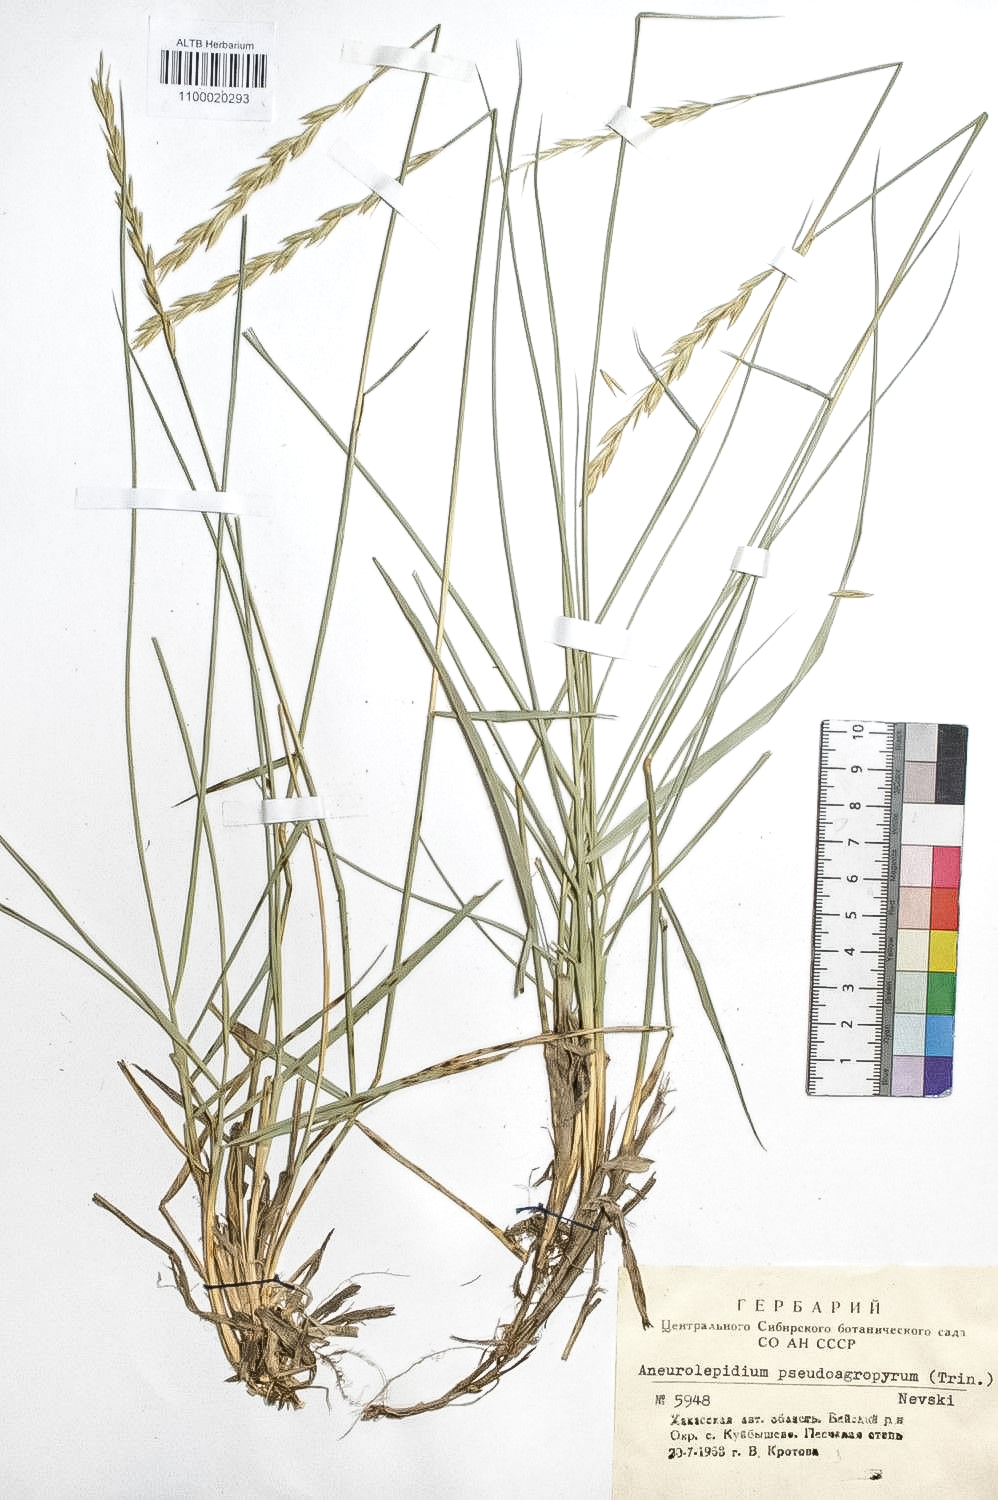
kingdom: Plantae
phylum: Tracheophyta
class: Liliopsida
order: Poales
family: Poaceae
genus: Leymus
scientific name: Leymus chinensis
